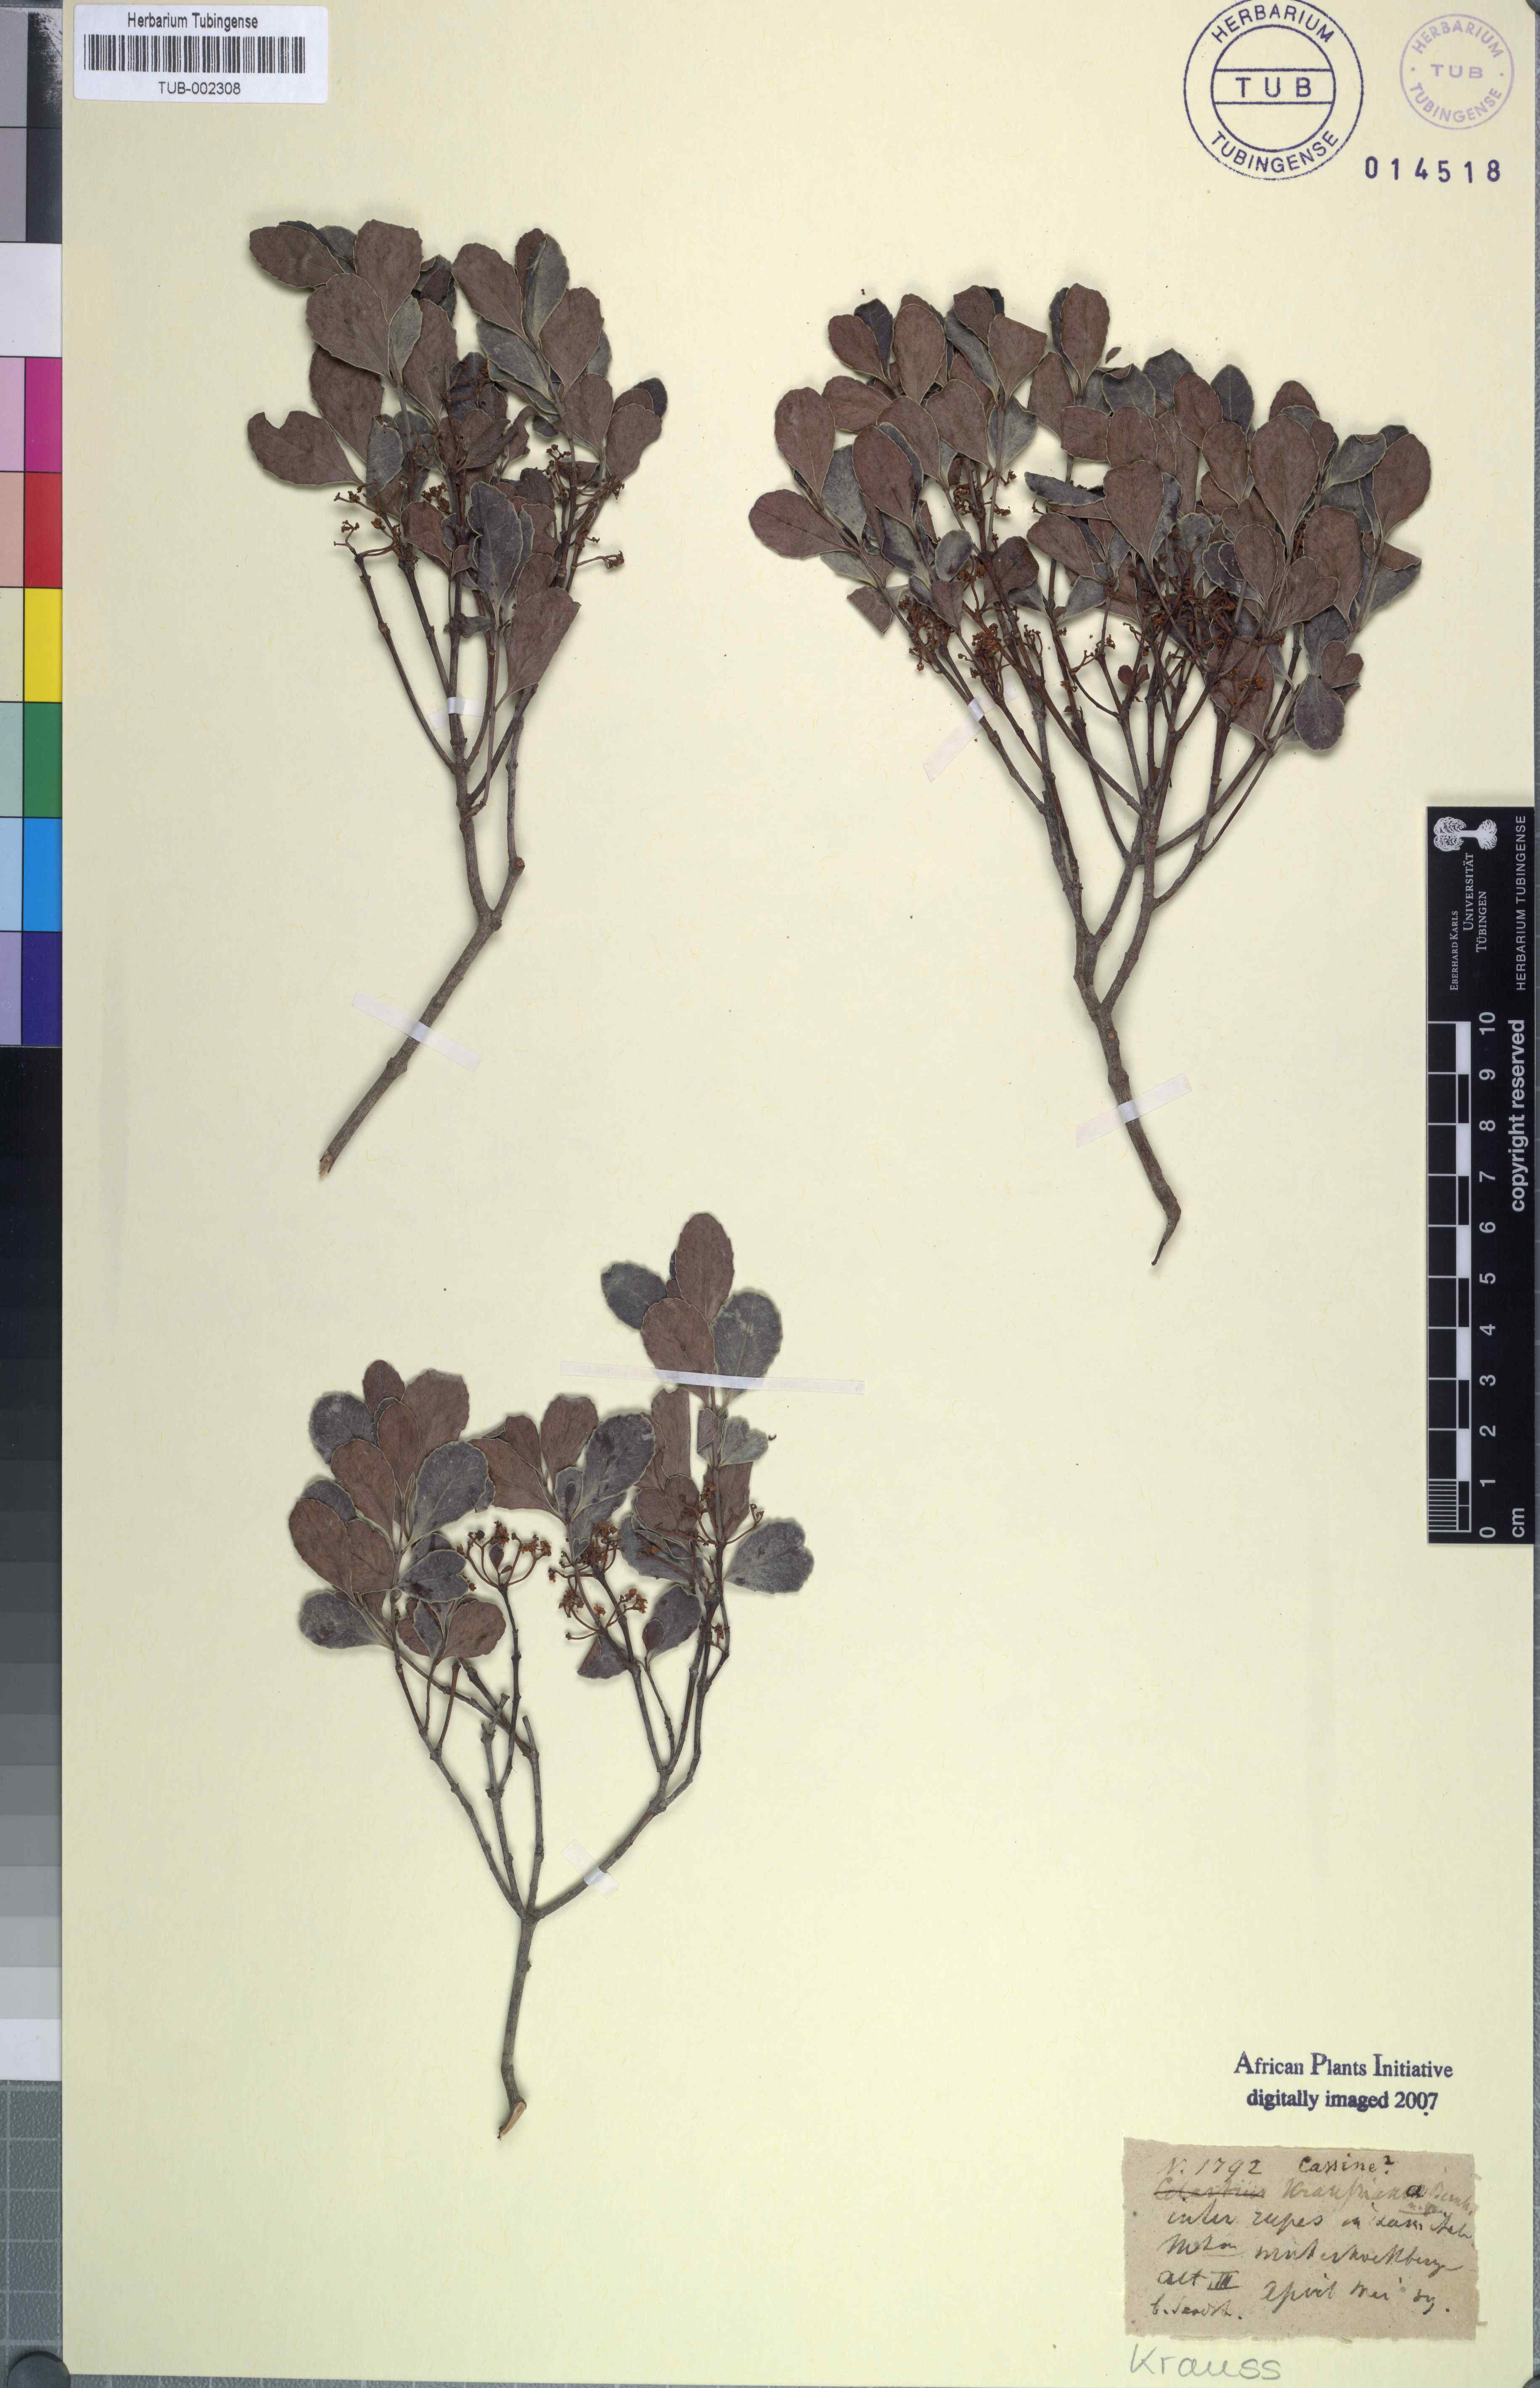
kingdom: Plantae
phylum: Tracheophyta
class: Magnoliopsida
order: Celastrales
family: Celastraceae
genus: Cassine
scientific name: Cassine peragua
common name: Cape saffron
